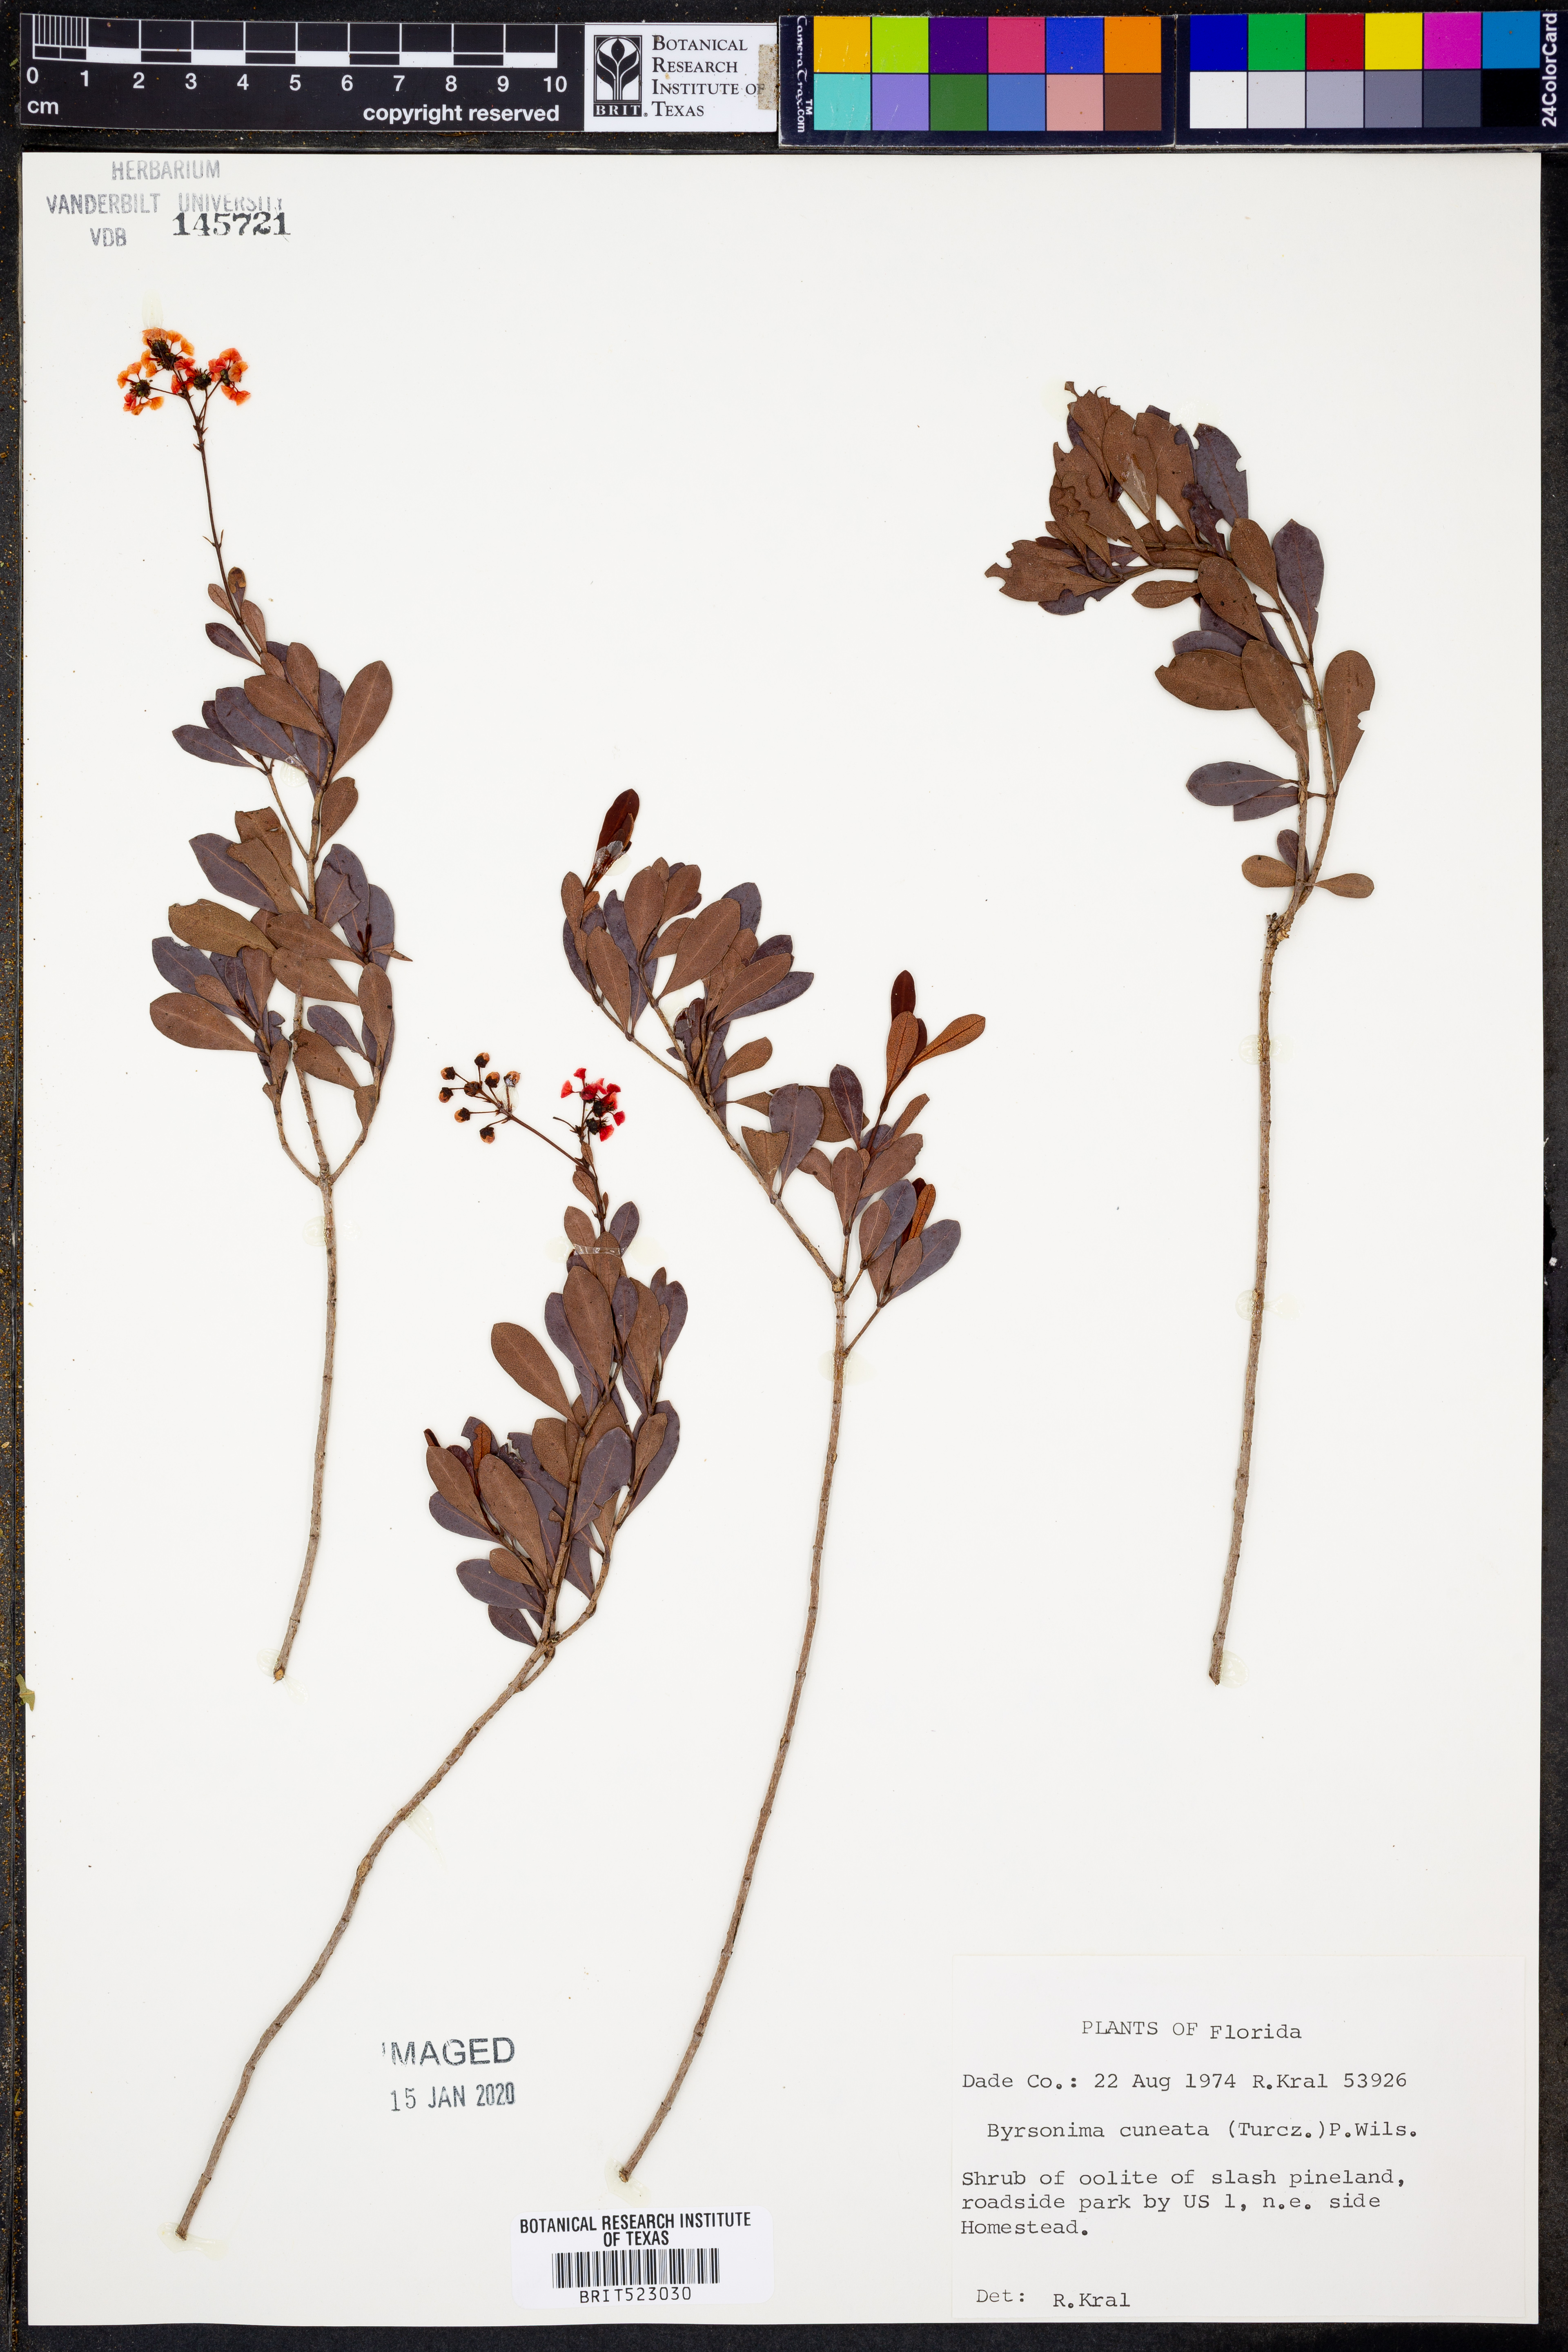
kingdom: Plantae
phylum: Tracheophyta
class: Magnoliopsida
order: Malpighiales
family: Malpighiaceae
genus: Byrsonima
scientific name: Byrsonima lucida
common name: Clam-cherry
